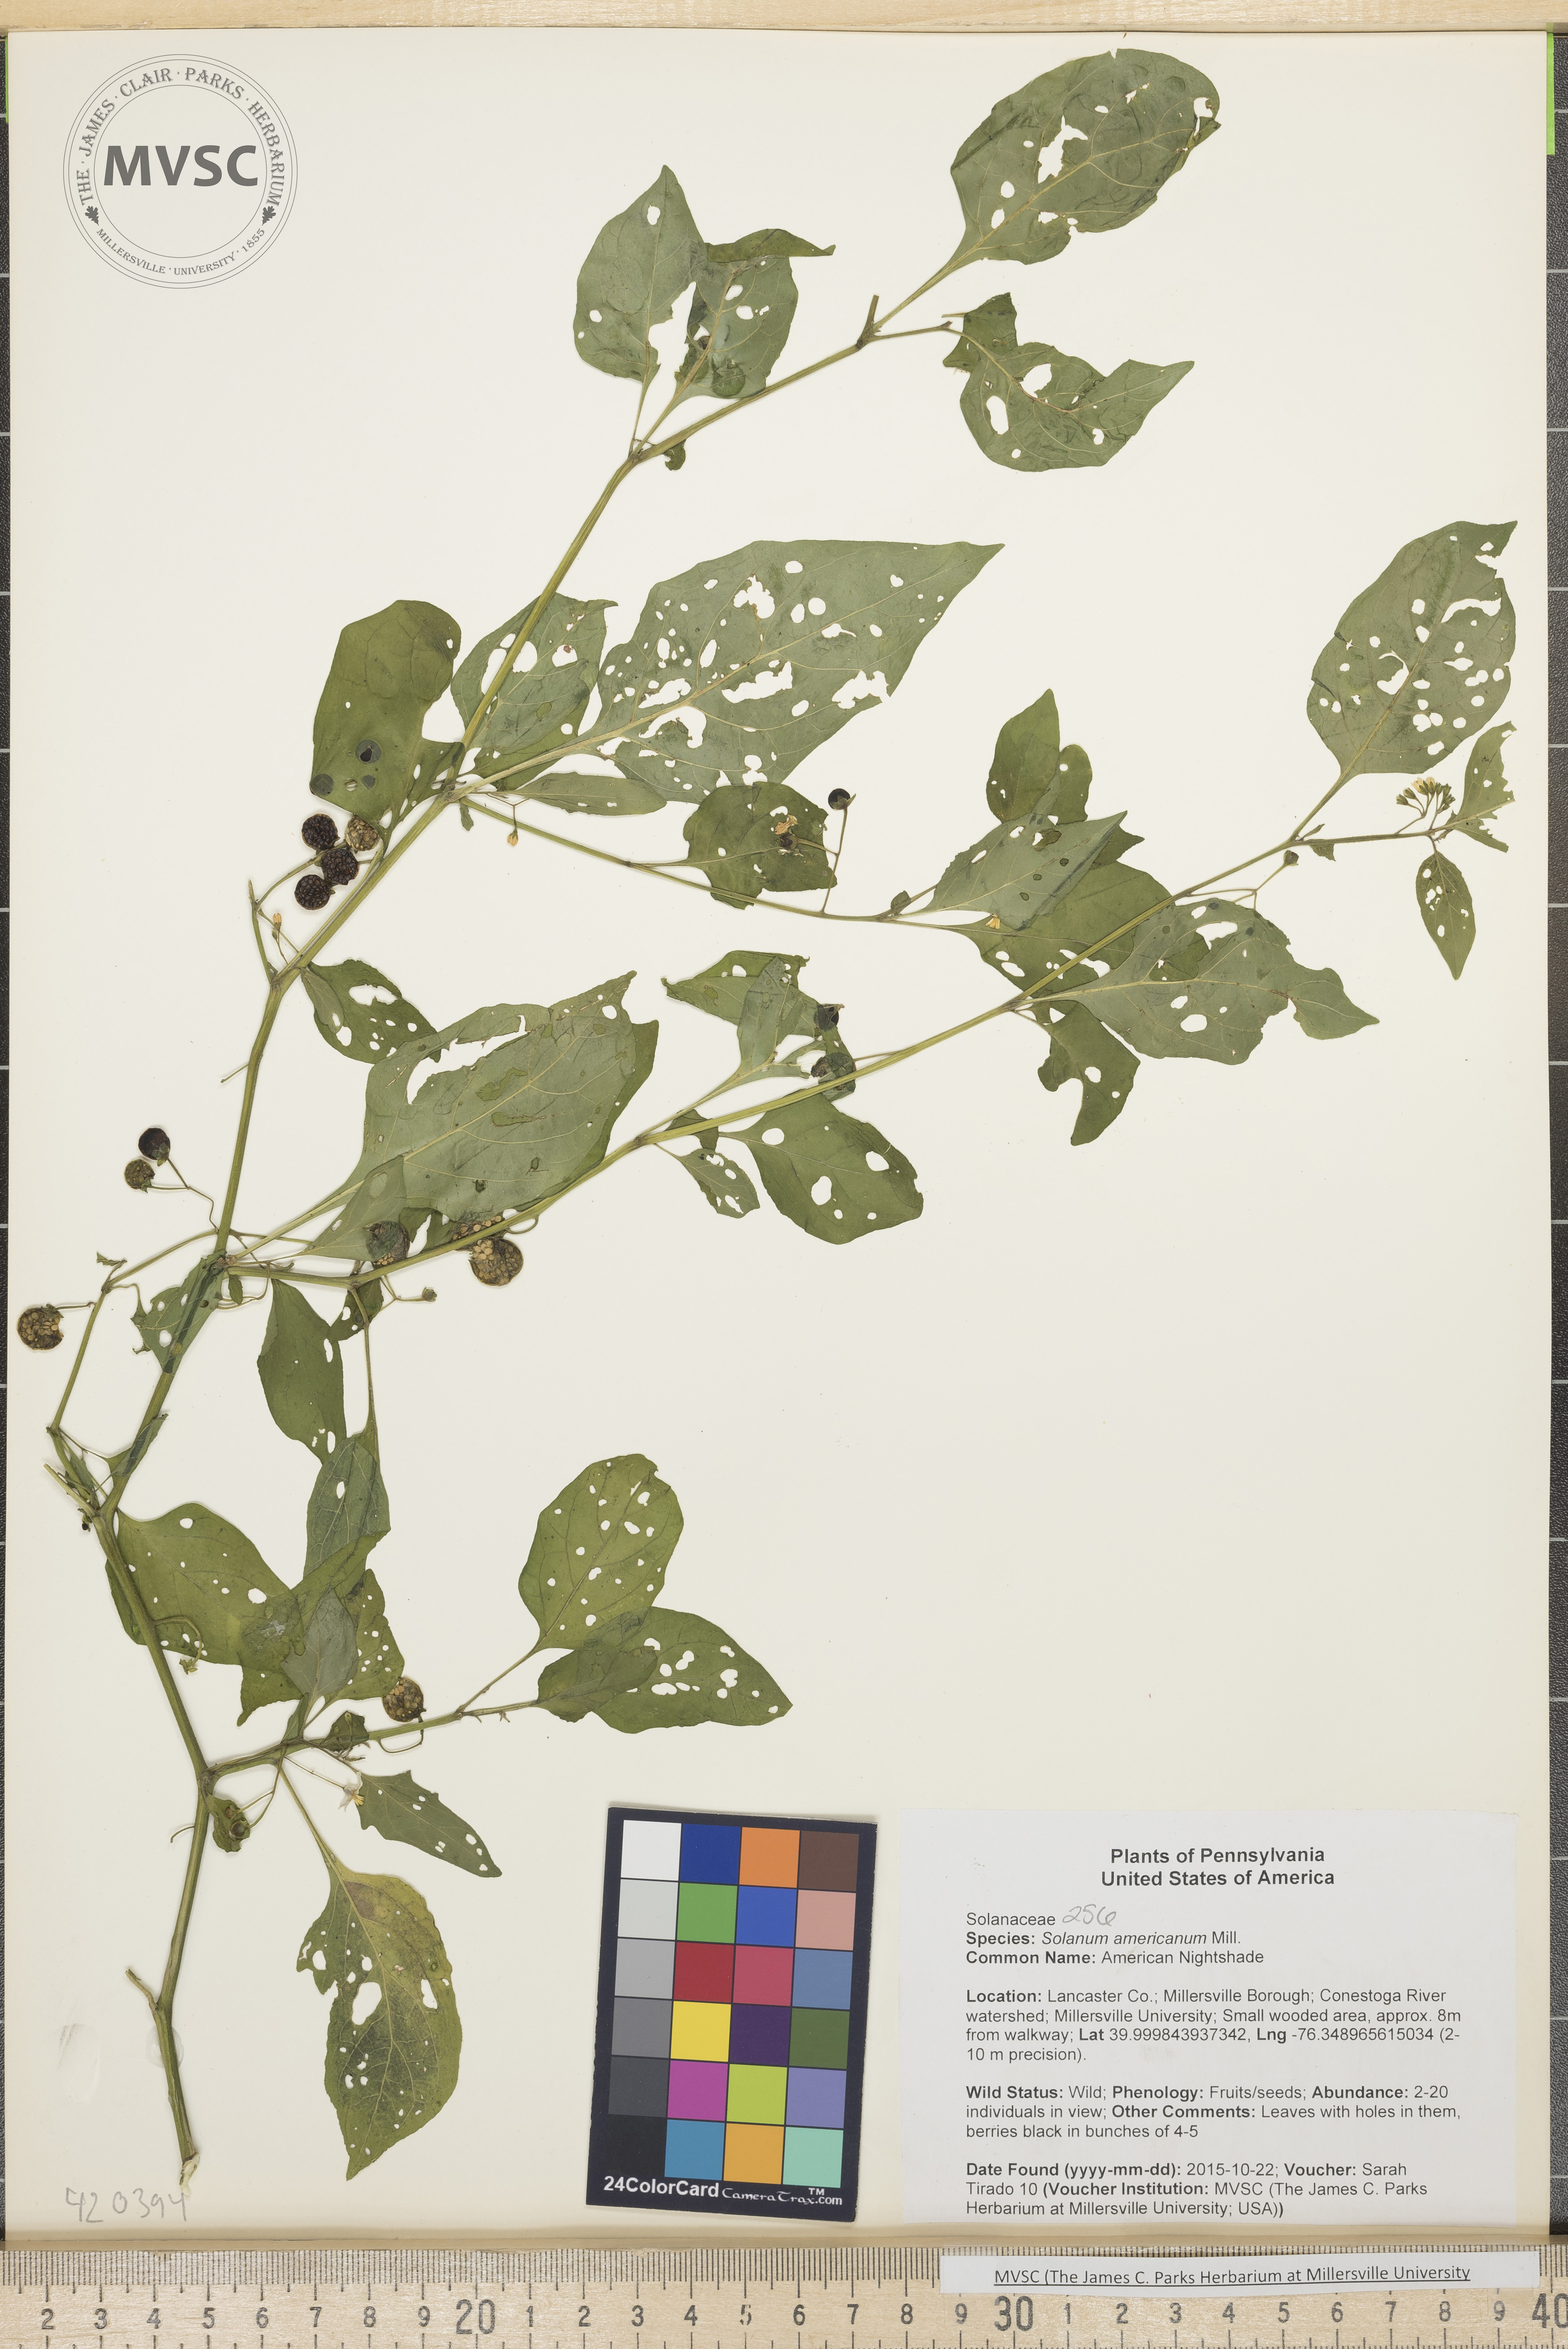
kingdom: Plantae
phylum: Tracheophyta
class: Magnoliopsida
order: Solanales
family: Solanaceae
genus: Solanum
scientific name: Solanum americanum
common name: American Nightshade
